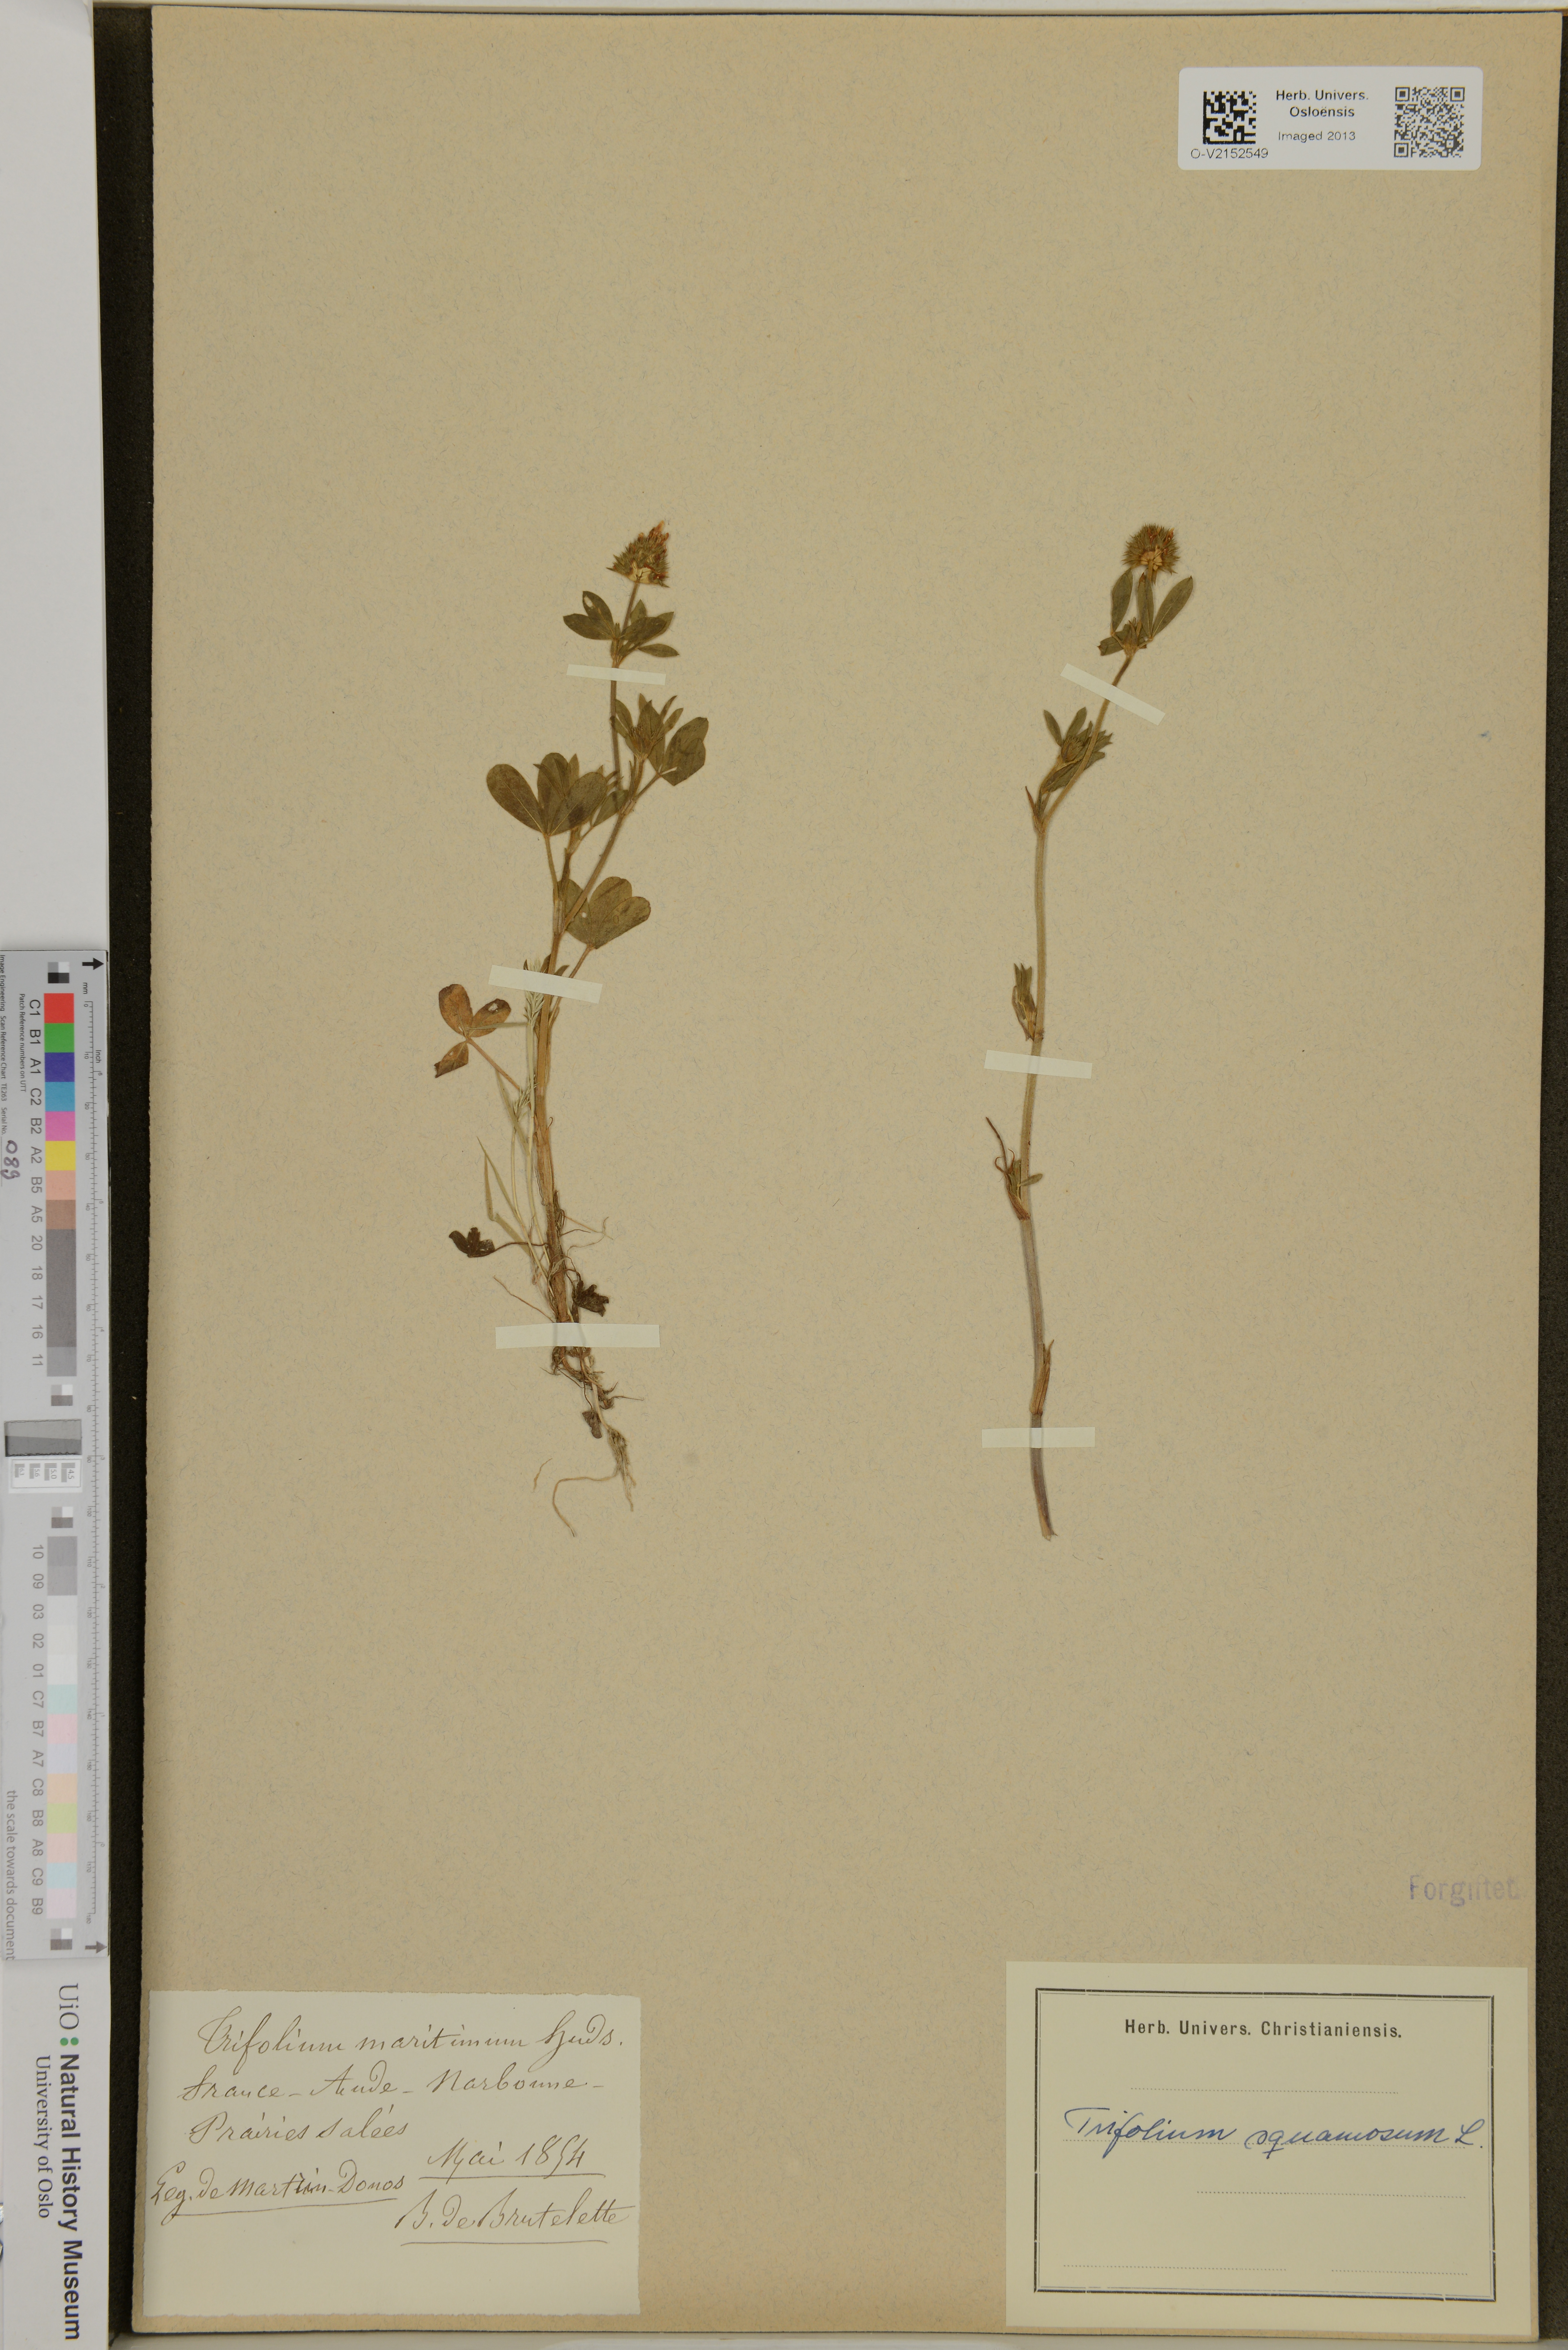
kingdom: Plantae
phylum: Tracheophyta
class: Magnoliopsida
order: Fabales
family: Fabaceae
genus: Trifolium
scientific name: Trifolium squamosum
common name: Sea clover
